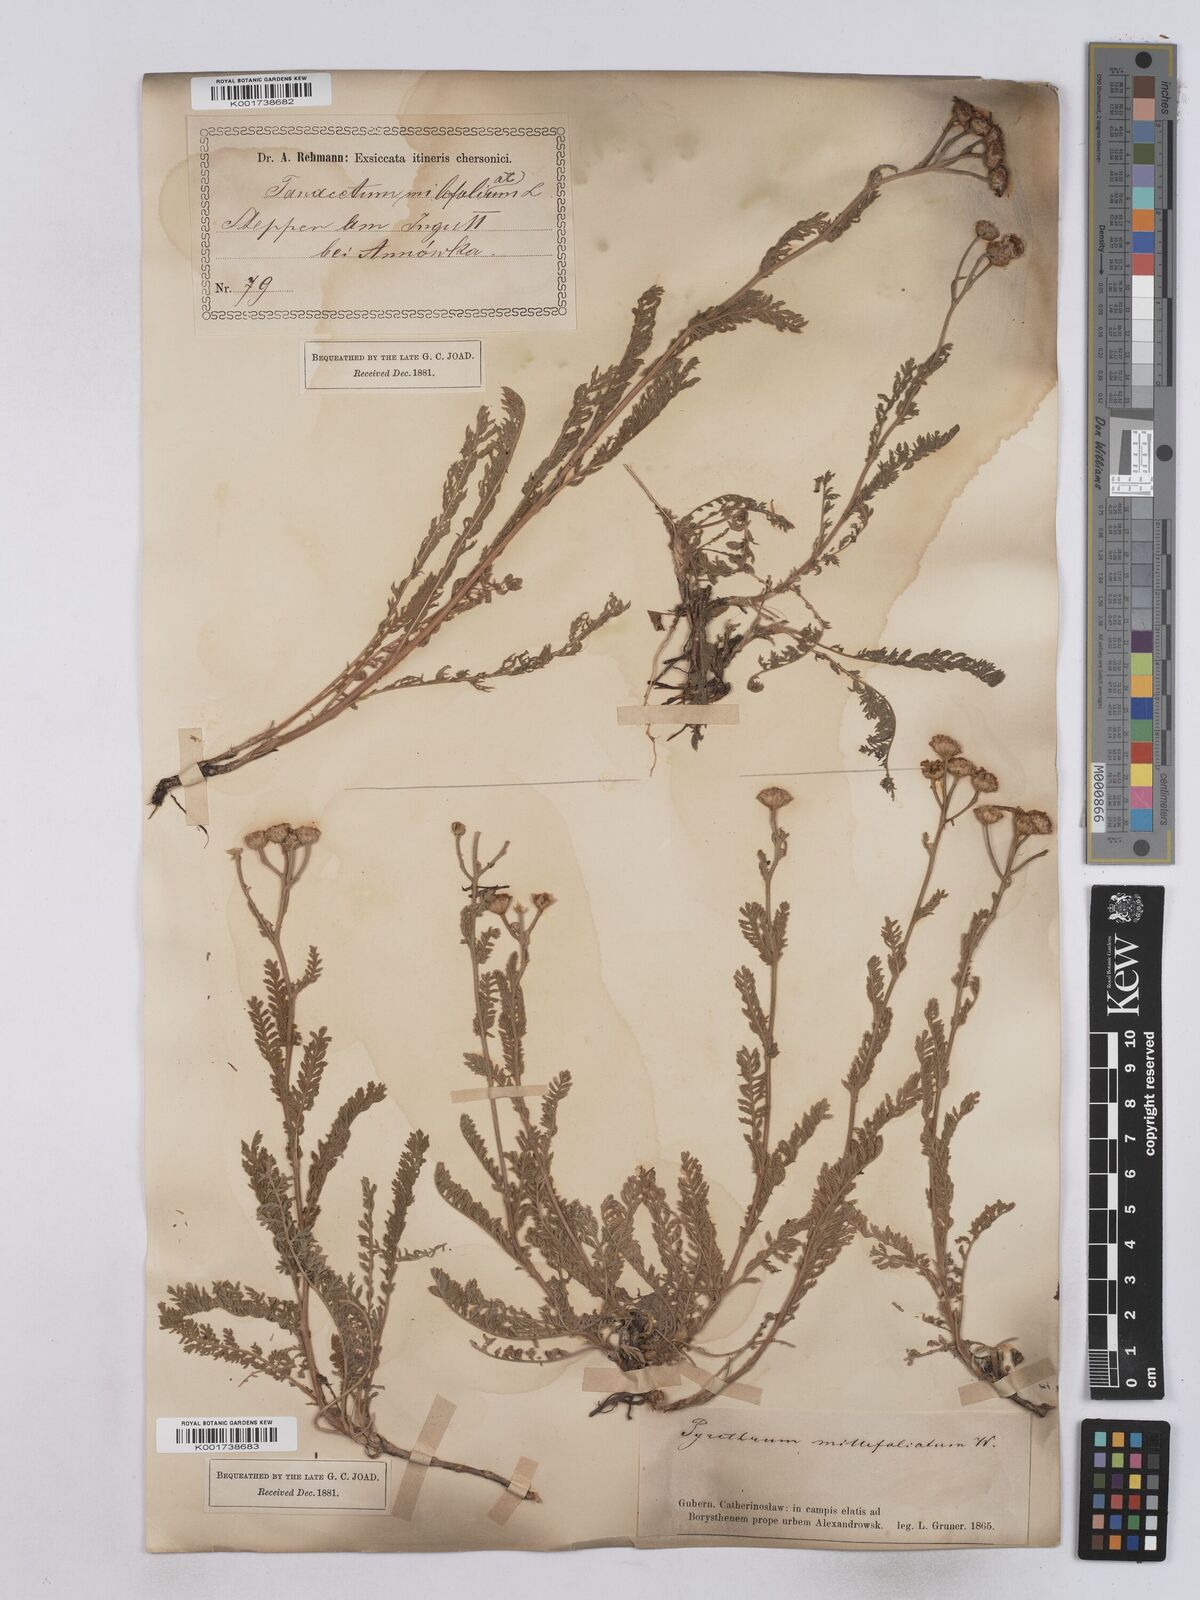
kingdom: Plantae
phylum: Tracheophyta
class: Magnoliopsida
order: Asterales
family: Asteraceae
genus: Tanacetum
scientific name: Tanacetum millefolium
